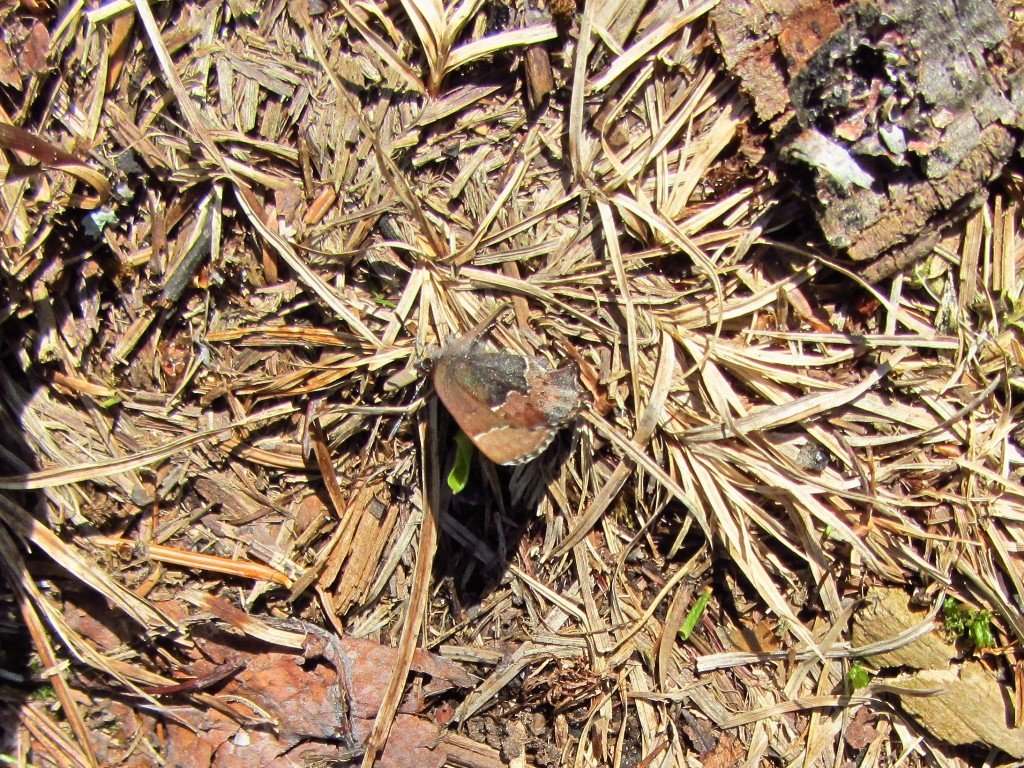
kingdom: Animalia
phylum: Arthropoda
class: Insecta
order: Lepidoptera
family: Lycaenidae
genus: Incisalia
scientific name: Incisalia henrici
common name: Henry's Elfin
